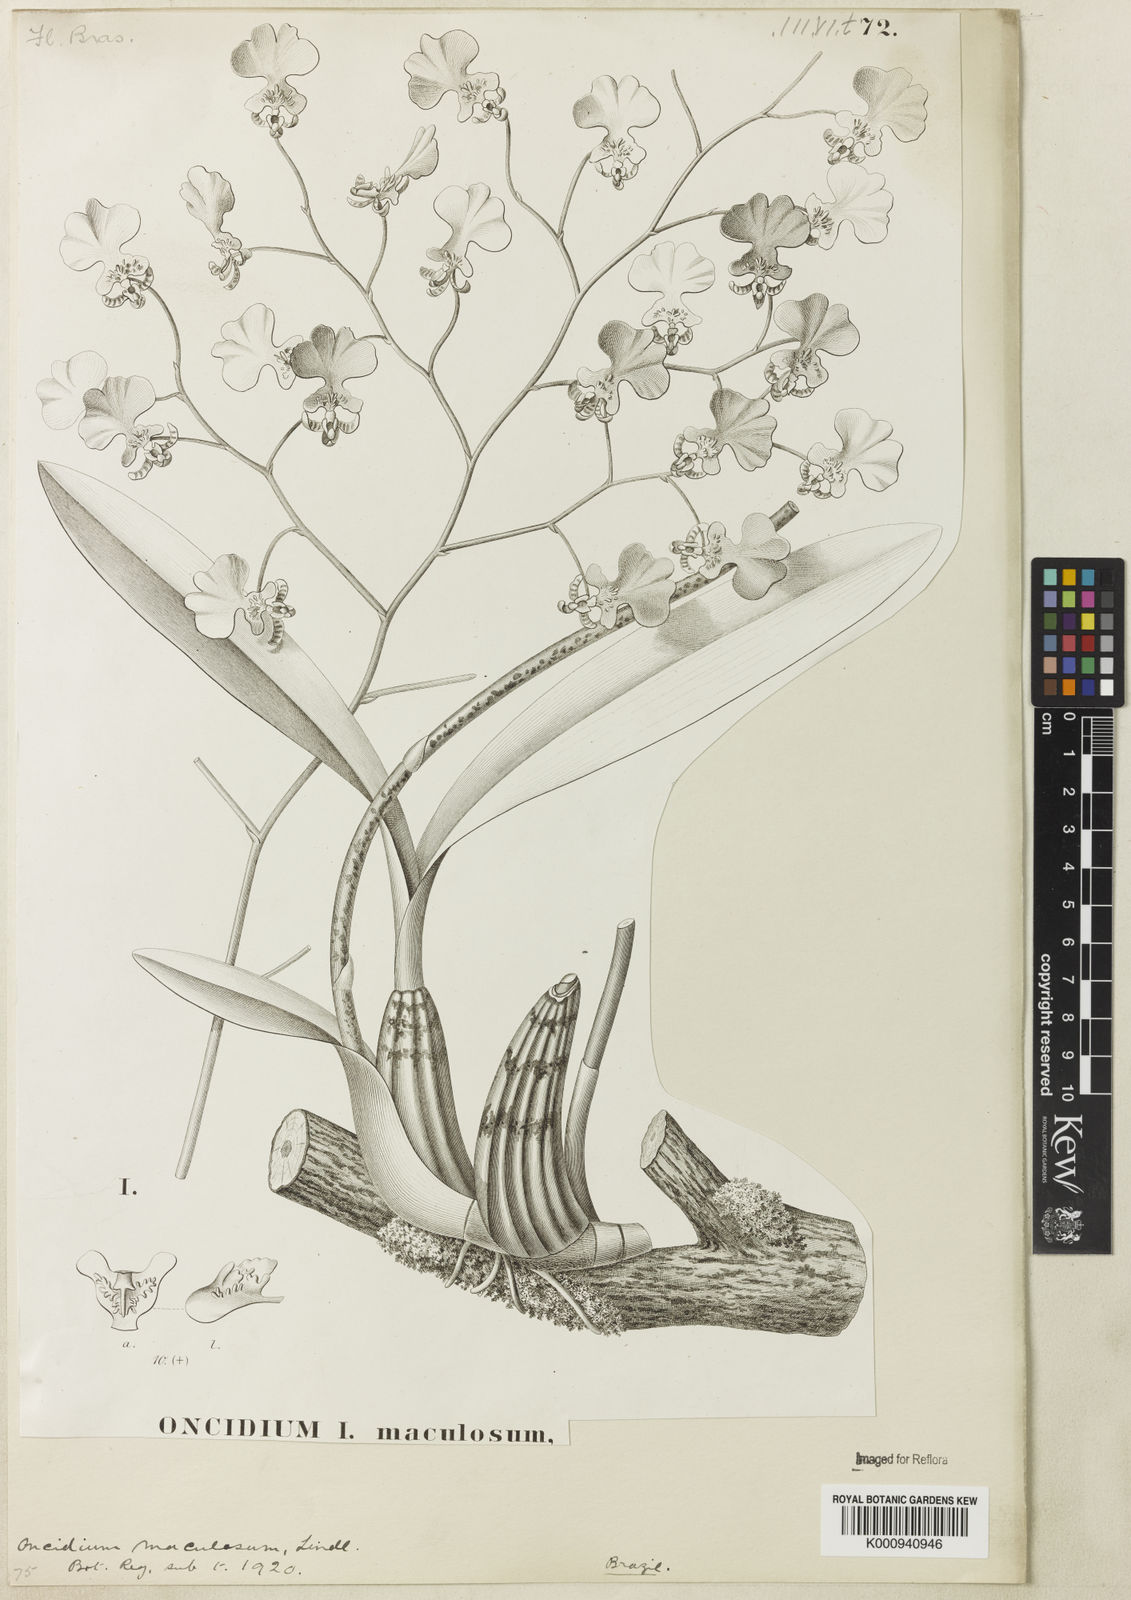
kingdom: Plantae
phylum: Tracheophyta
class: Liliopsida
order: Asparagales
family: Orchidaceae
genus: Gomesa
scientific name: Gomesa bifolia
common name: Dancing ladies
